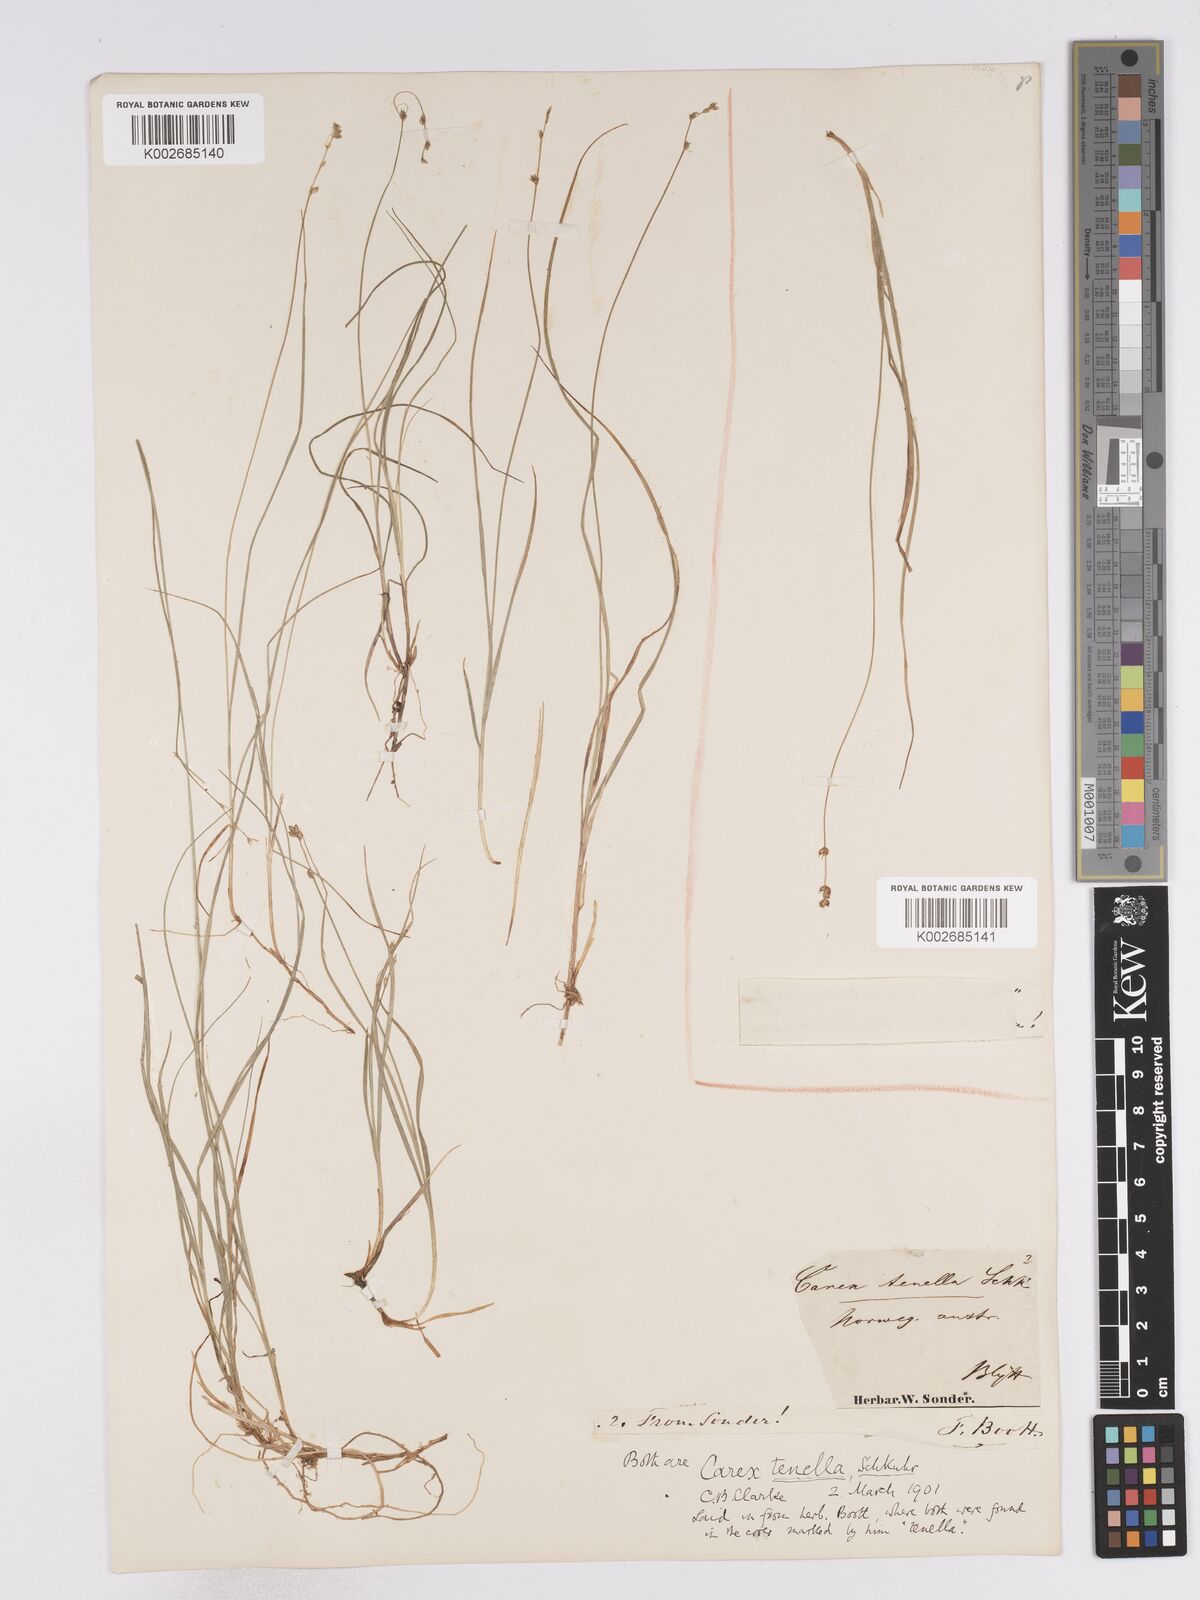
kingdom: Plantae
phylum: Tracheophyta
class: Liliopsida
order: Poales
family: Cyperaceae
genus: Carex
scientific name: Carex disperma
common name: Short-leaved sedge
